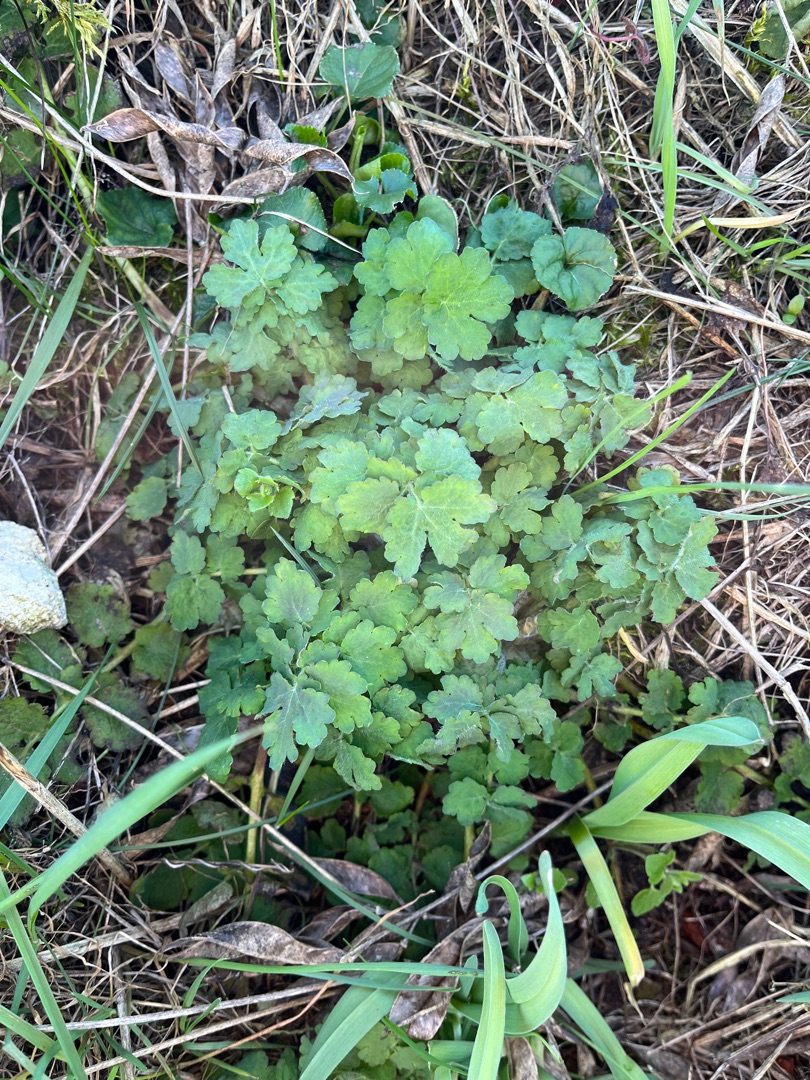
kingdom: Plantae
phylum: Tracheophyta
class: Magnoliopsida
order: Ranunculales
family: Papaveraceae
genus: Chelidonium
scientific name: Chelidonium majus
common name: Svaleurt
